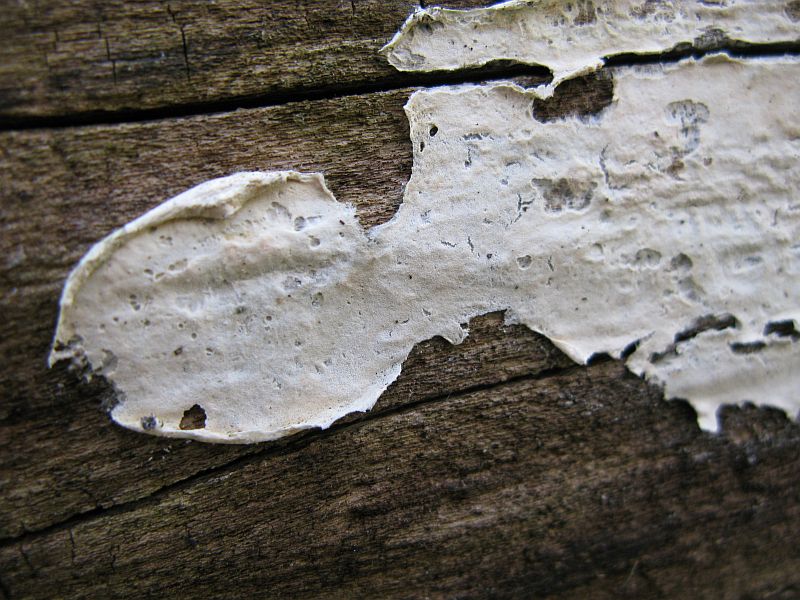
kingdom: Fungi
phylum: Basidiomycota
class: Agaricomycetes
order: Agaricales
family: Cyphellaceae
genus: Granulobasidium
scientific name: Granulobasidium vellereum
